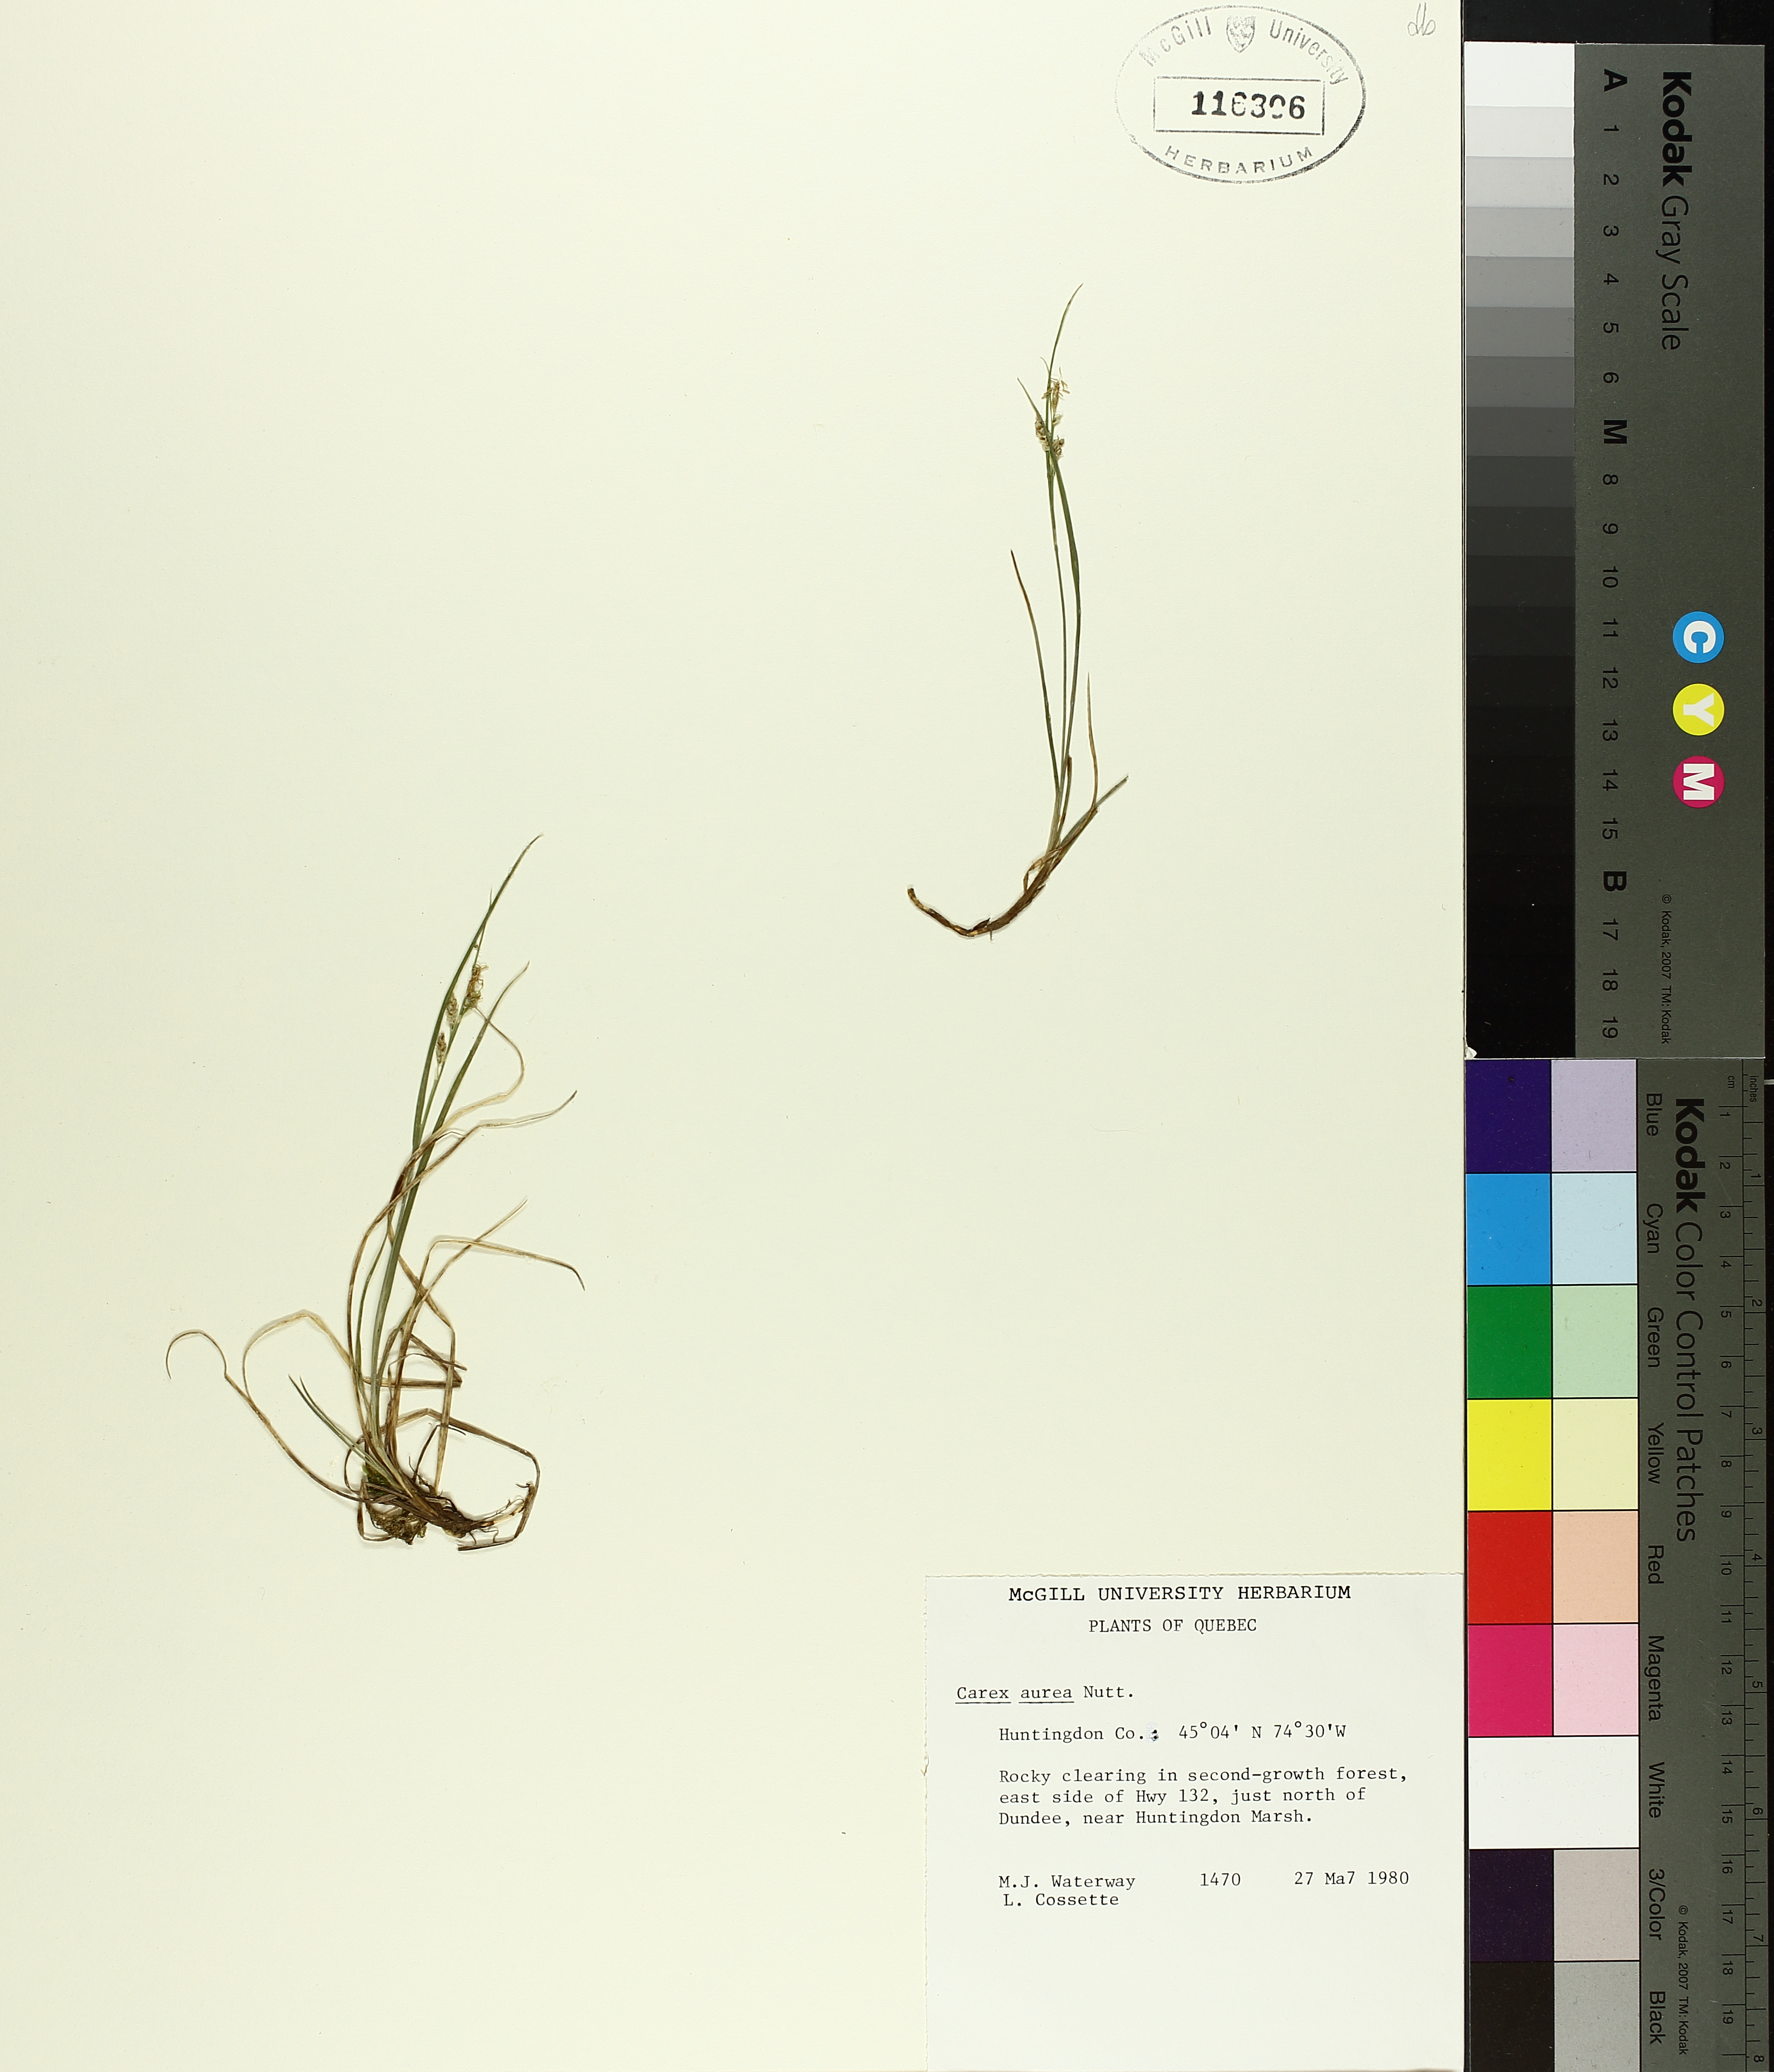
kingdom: Plantae
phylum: Tracheophyta
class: Liliopsida
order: Poales
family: Cyperaceae
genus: Carex
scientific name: Carex aurea
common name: Golden sedge
